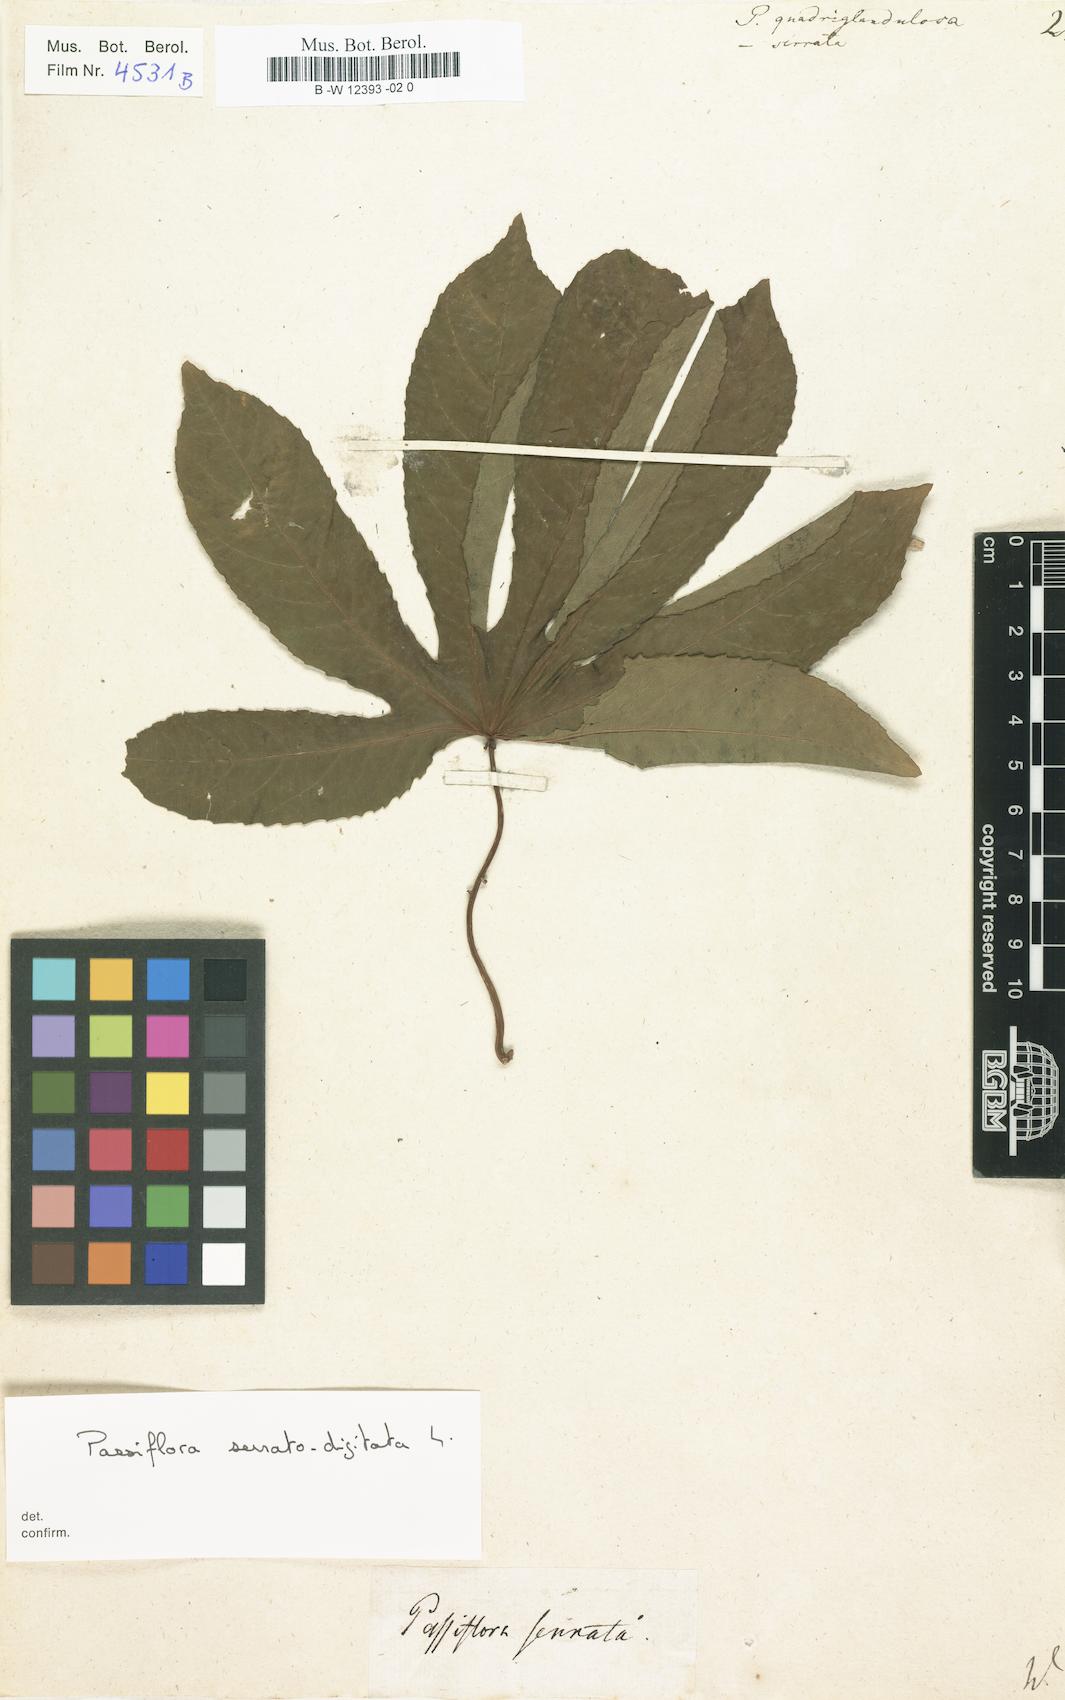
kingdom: Plantae
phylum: Tracheophyta
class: Magnoliopsida
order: Malpighiales
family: Passifloraceae
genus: Passiflora
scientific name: Passiflora quadriglandulosa
